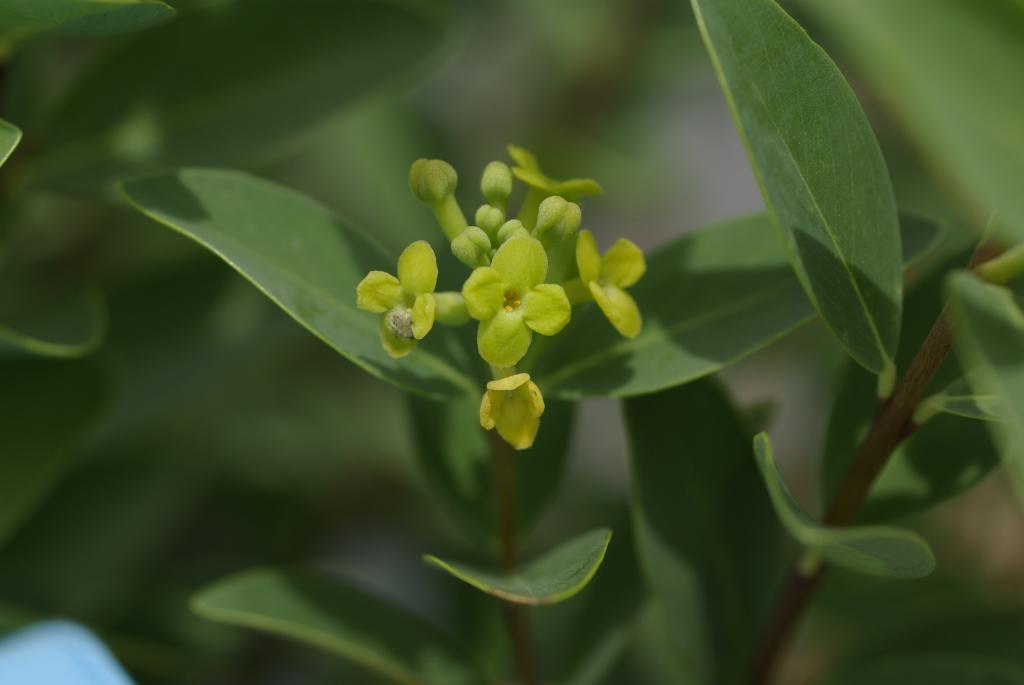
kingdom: Plantae
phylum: Tracheophyta
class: Magnoliopsida
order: Malvales
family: Thymelaeaceae
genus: Wikstroemia
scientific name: Wikstroemia indica
